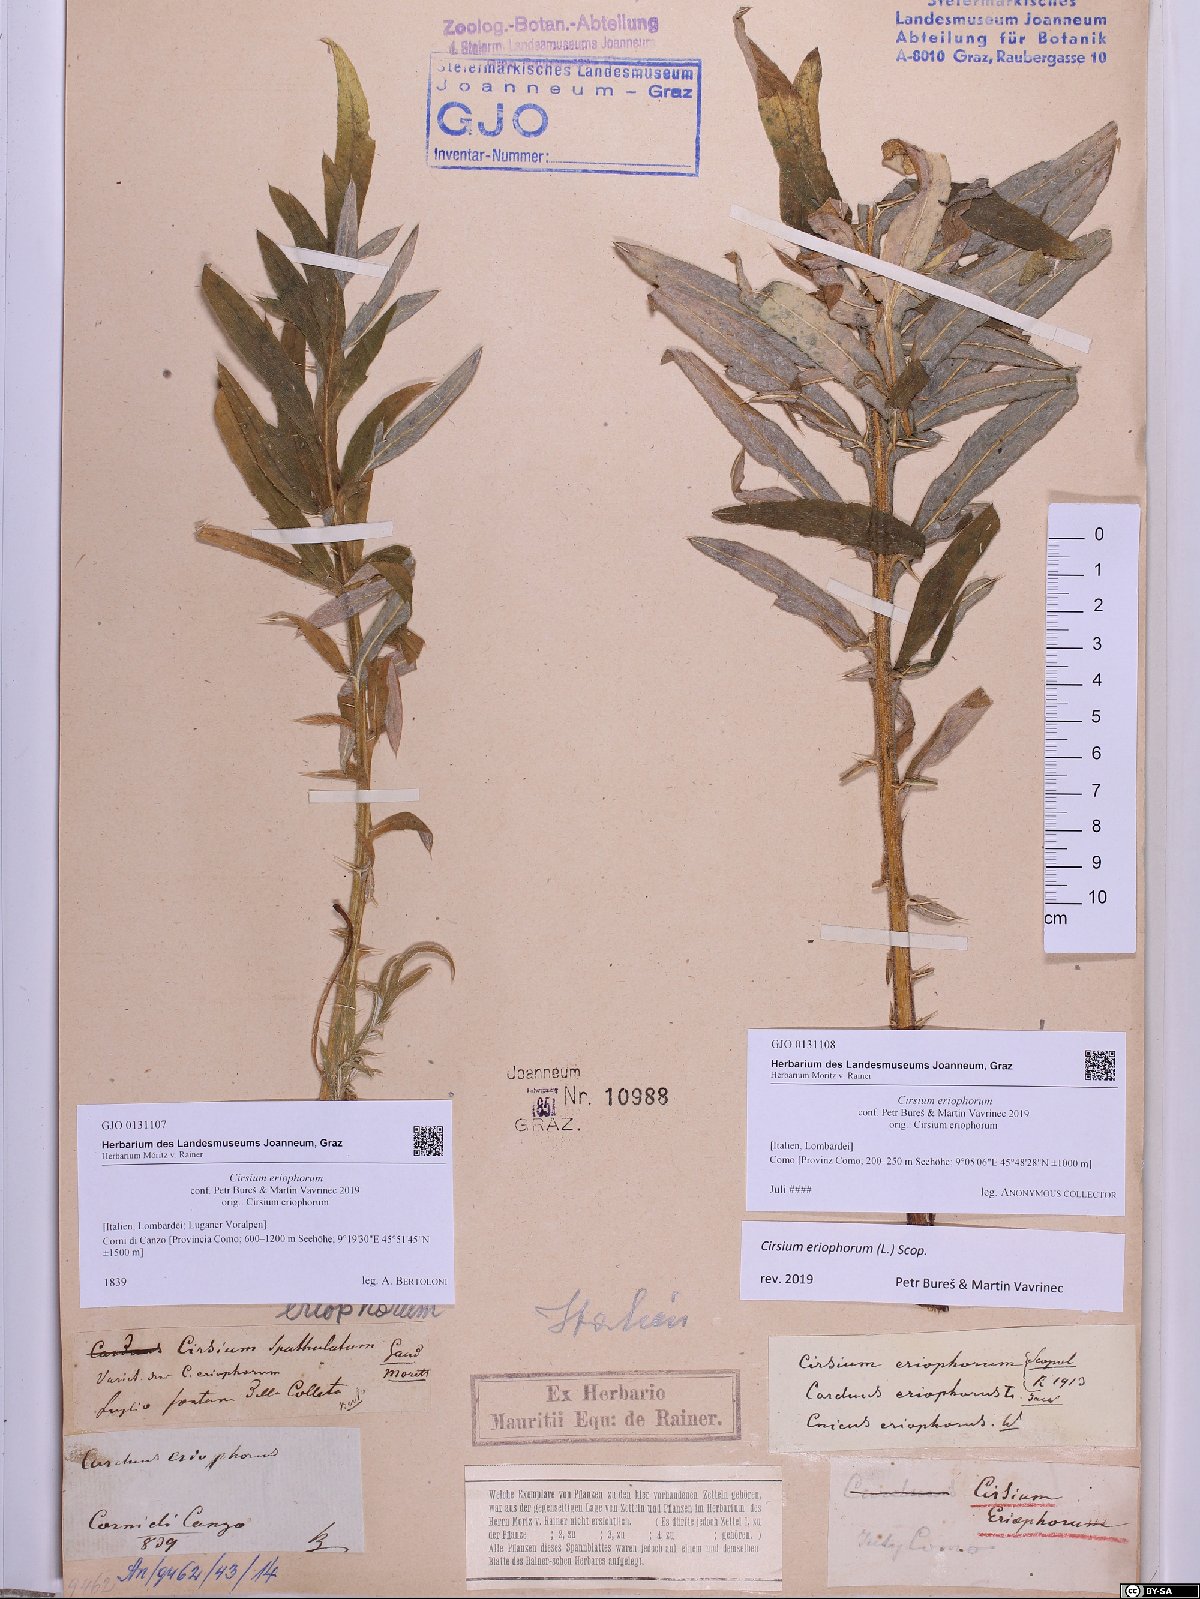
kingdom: Plantae
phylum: Tracheophyta
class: Magnoliopsida
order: Asterales
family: Asteraceae
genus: Lophiolepis
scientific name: Lophiolepis eriophora
